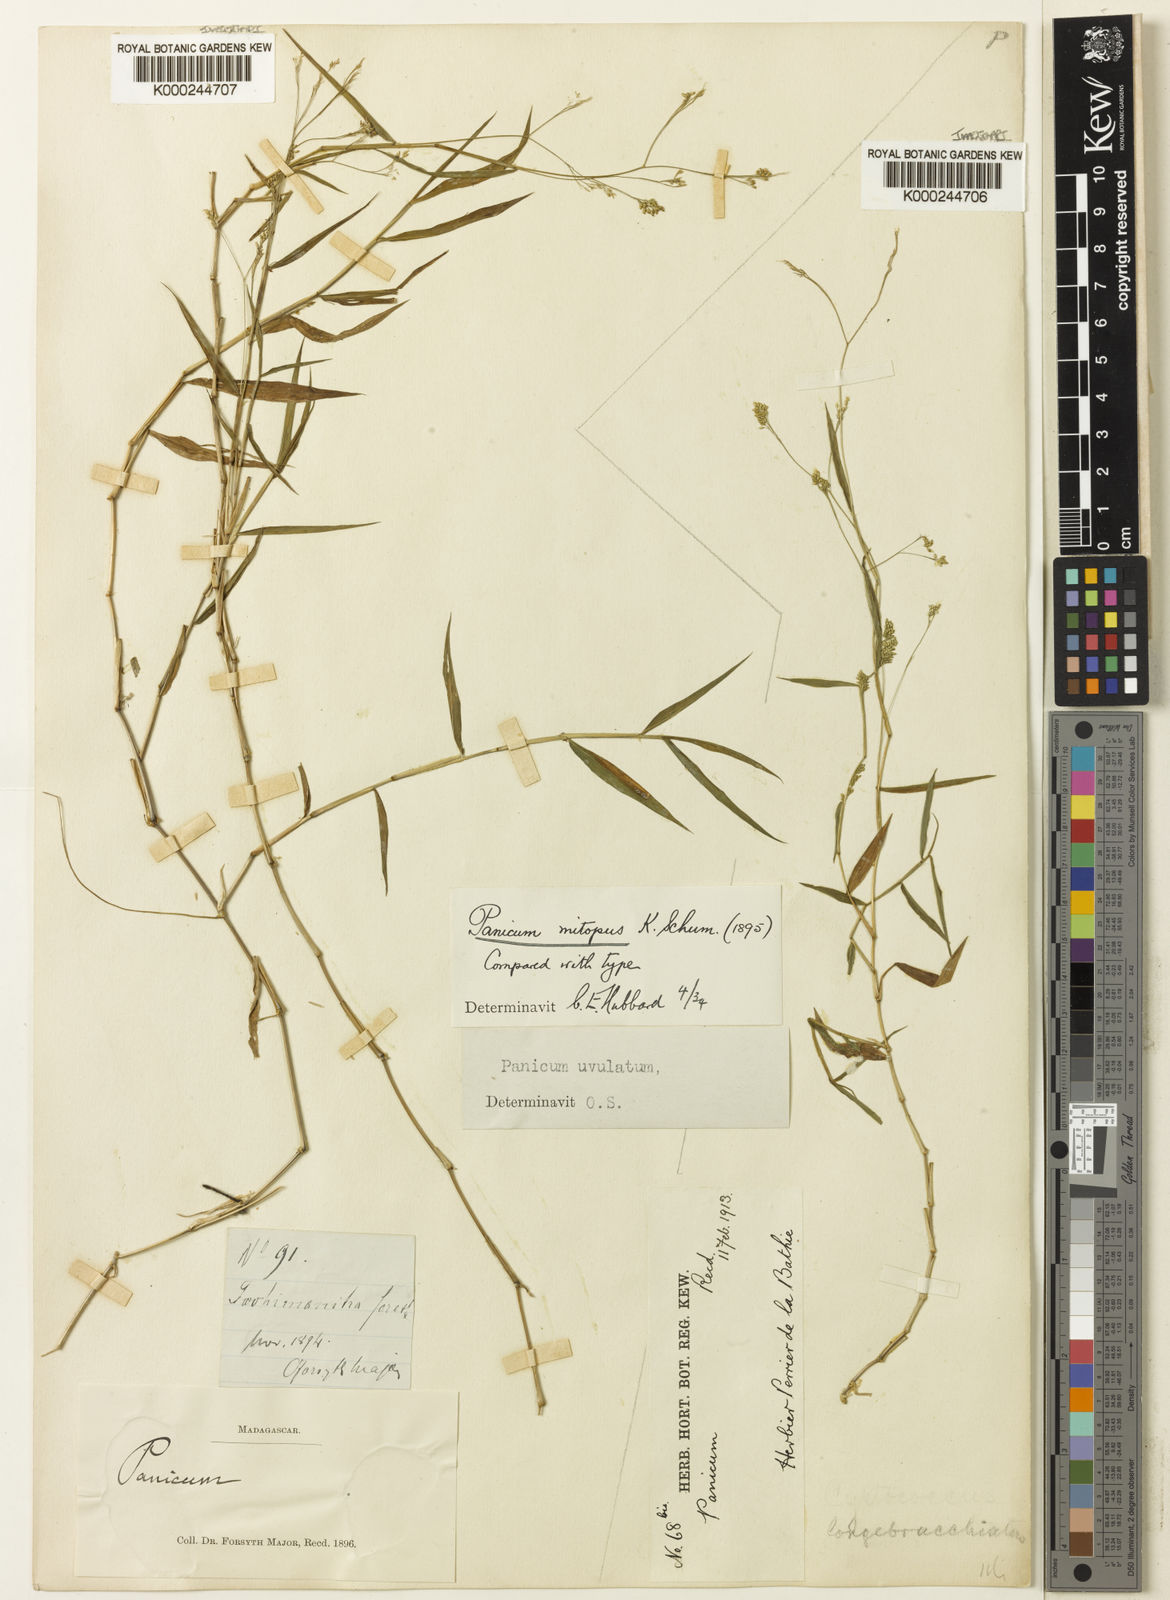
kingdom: Plantae
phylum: Tracheophyta
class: Liliopsida
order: Poales
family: Poaceae
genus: Panicum
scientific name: Panicum mitopus
